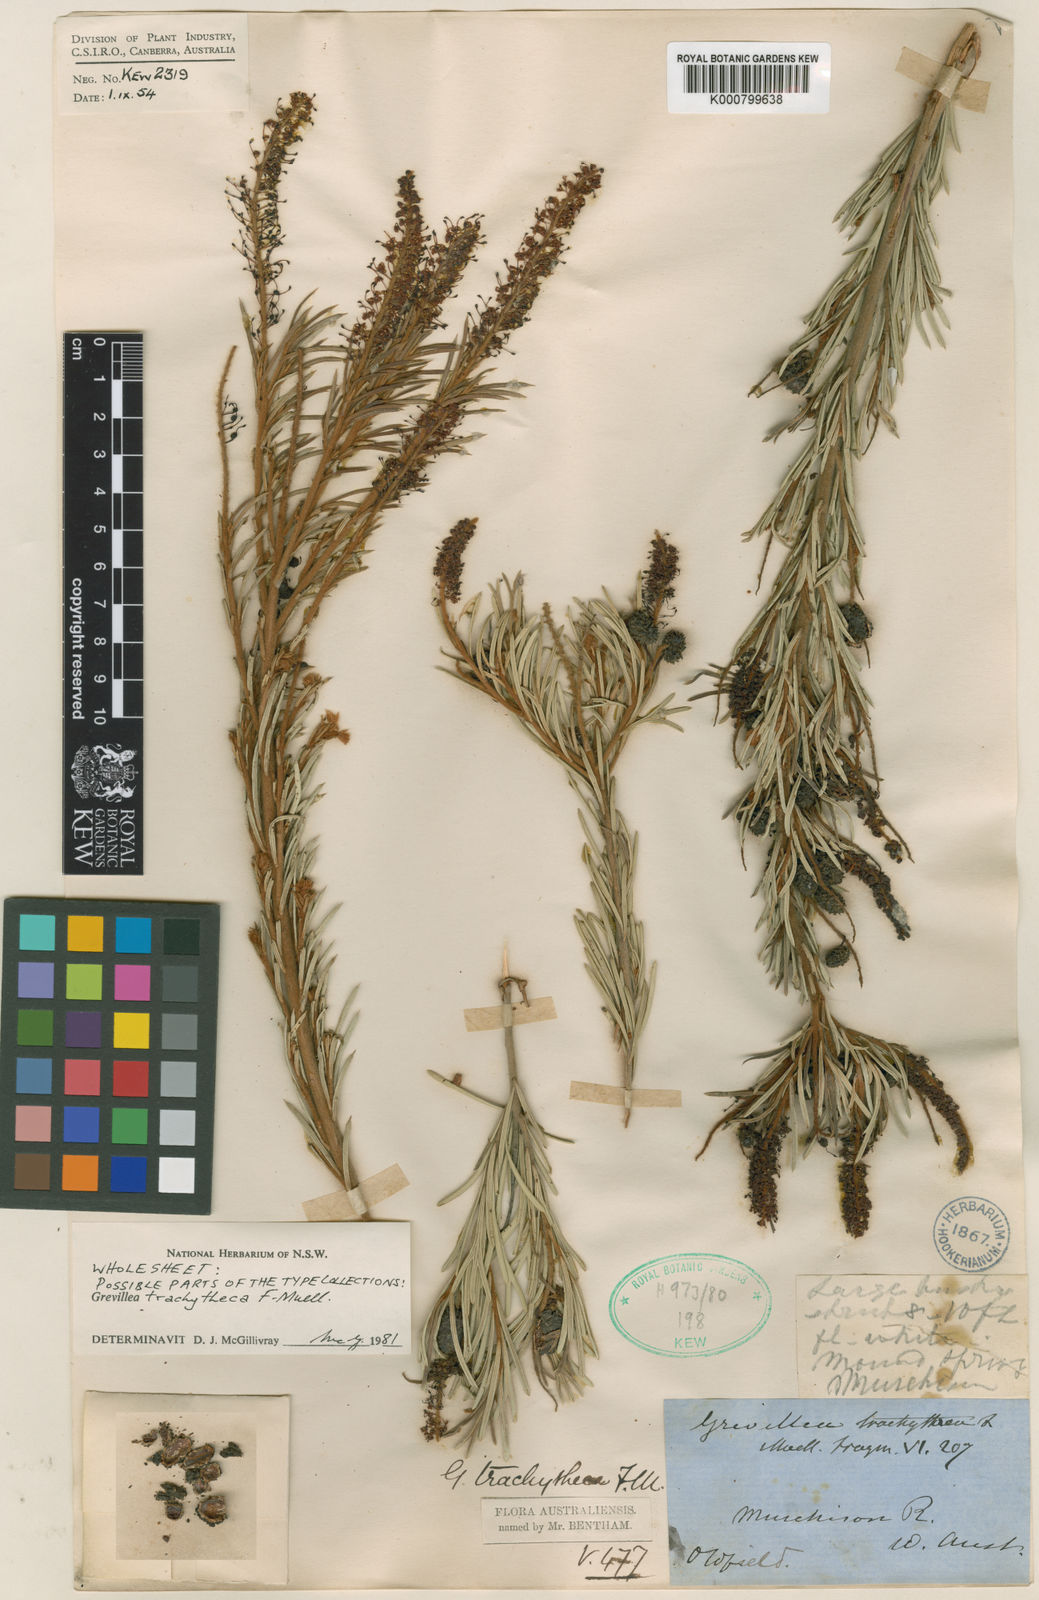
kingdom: Plantae
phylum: Tracheophyta
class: Magnoliopsida
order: Proteales
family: Proteaceae
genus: Grevillea
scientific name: Grevillea trachytheca
